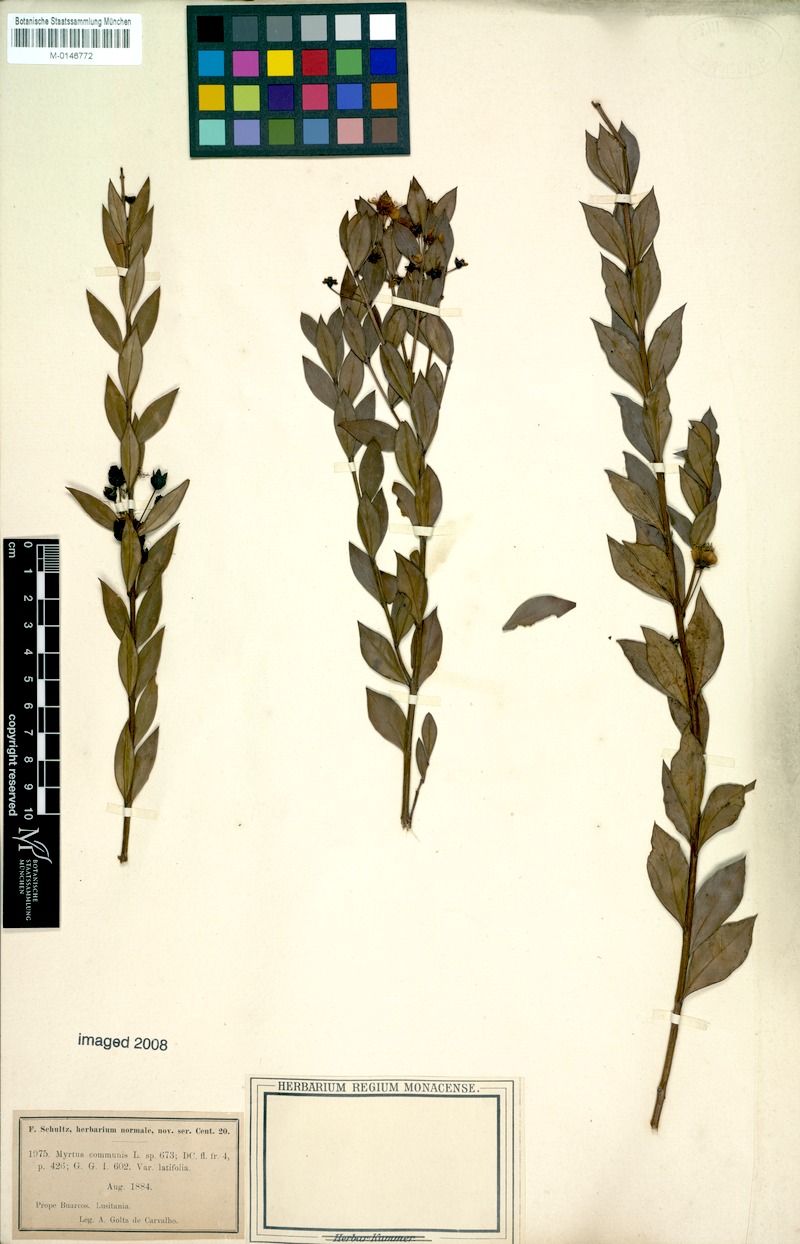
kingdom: Plantae
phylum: Tracheophyta
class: Magnoliopsida
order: Myrtales
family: Myrtaceae
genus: Myrtus
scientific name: Myrtus communis
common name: Myrtle
